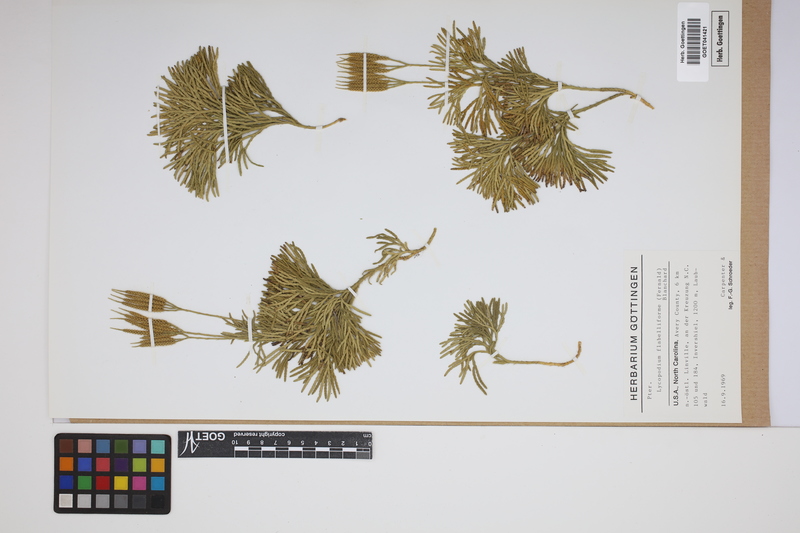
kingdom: Plantae
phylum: Tracheophyta
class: Lycopodiopsida
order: Lycopodiales
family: Lycopodiaceae
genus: Diphasiastrum
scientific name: Diphasiastrum digitatum
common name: Southern running-pine
